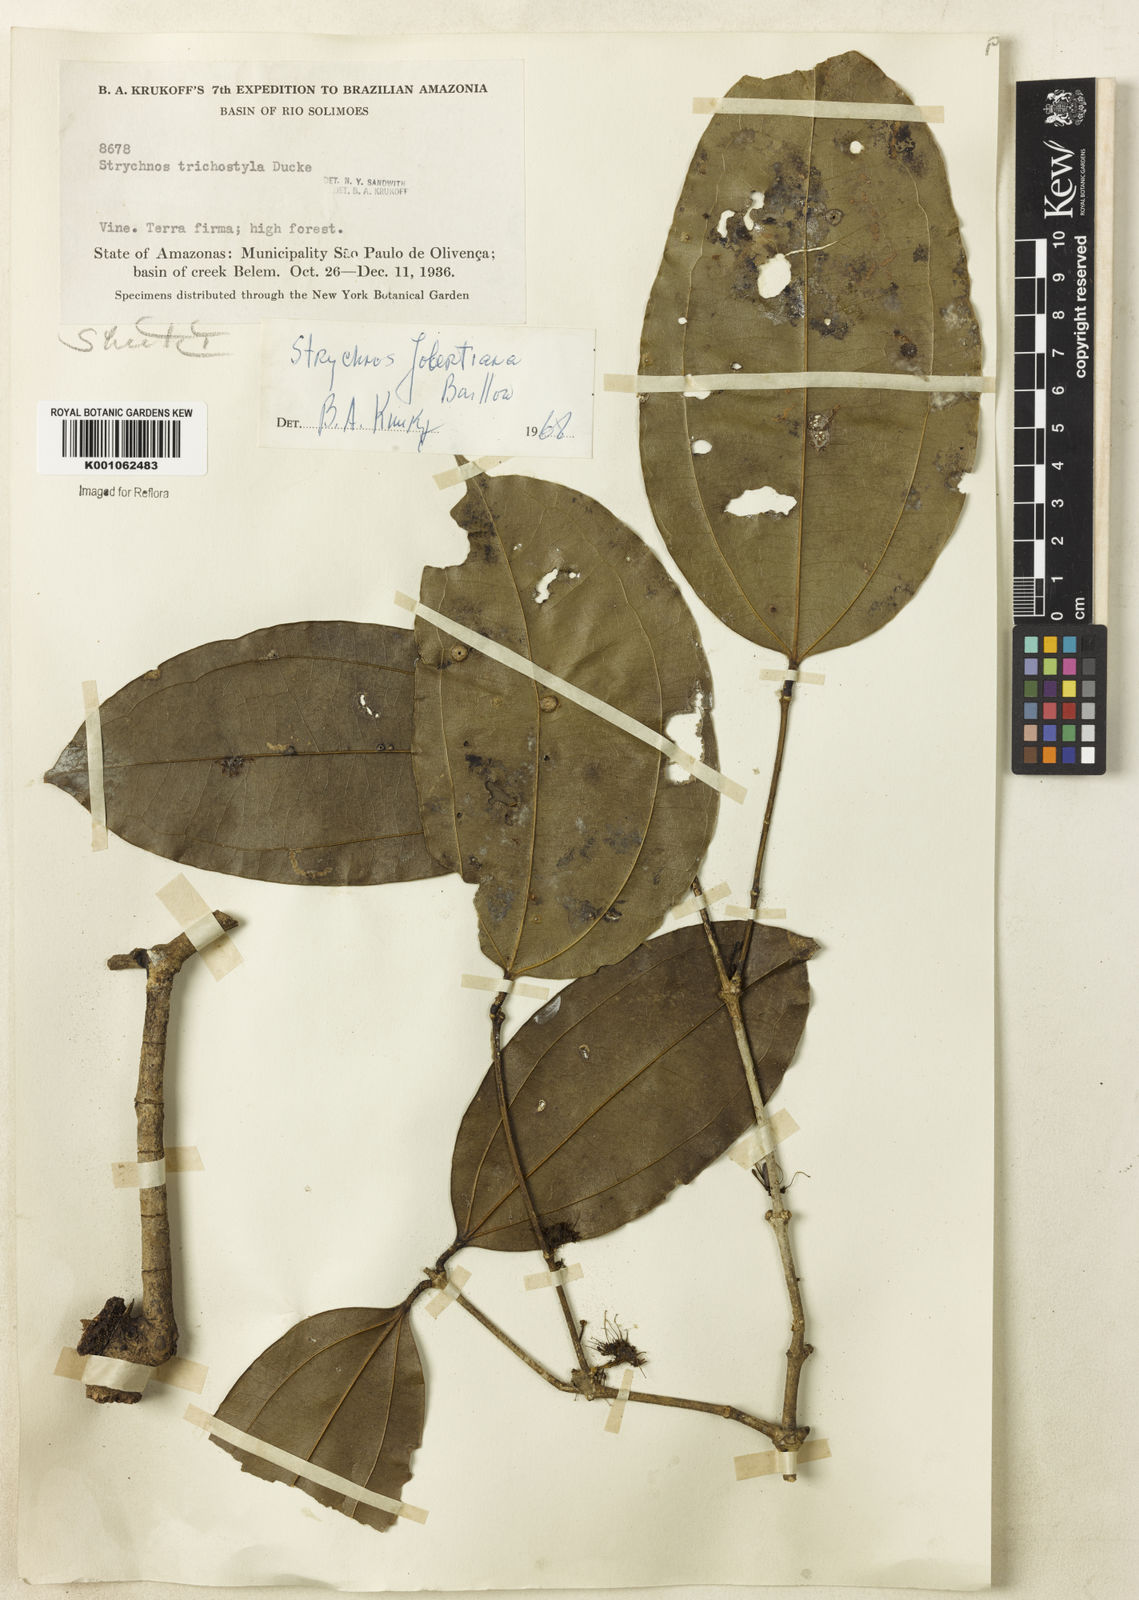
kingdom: Plantae
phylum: Tracheophyta
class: Magnoliopsida
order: Gentianales
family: Loganiaceae
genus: Strychnos
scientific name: Strychnos jobertiana
